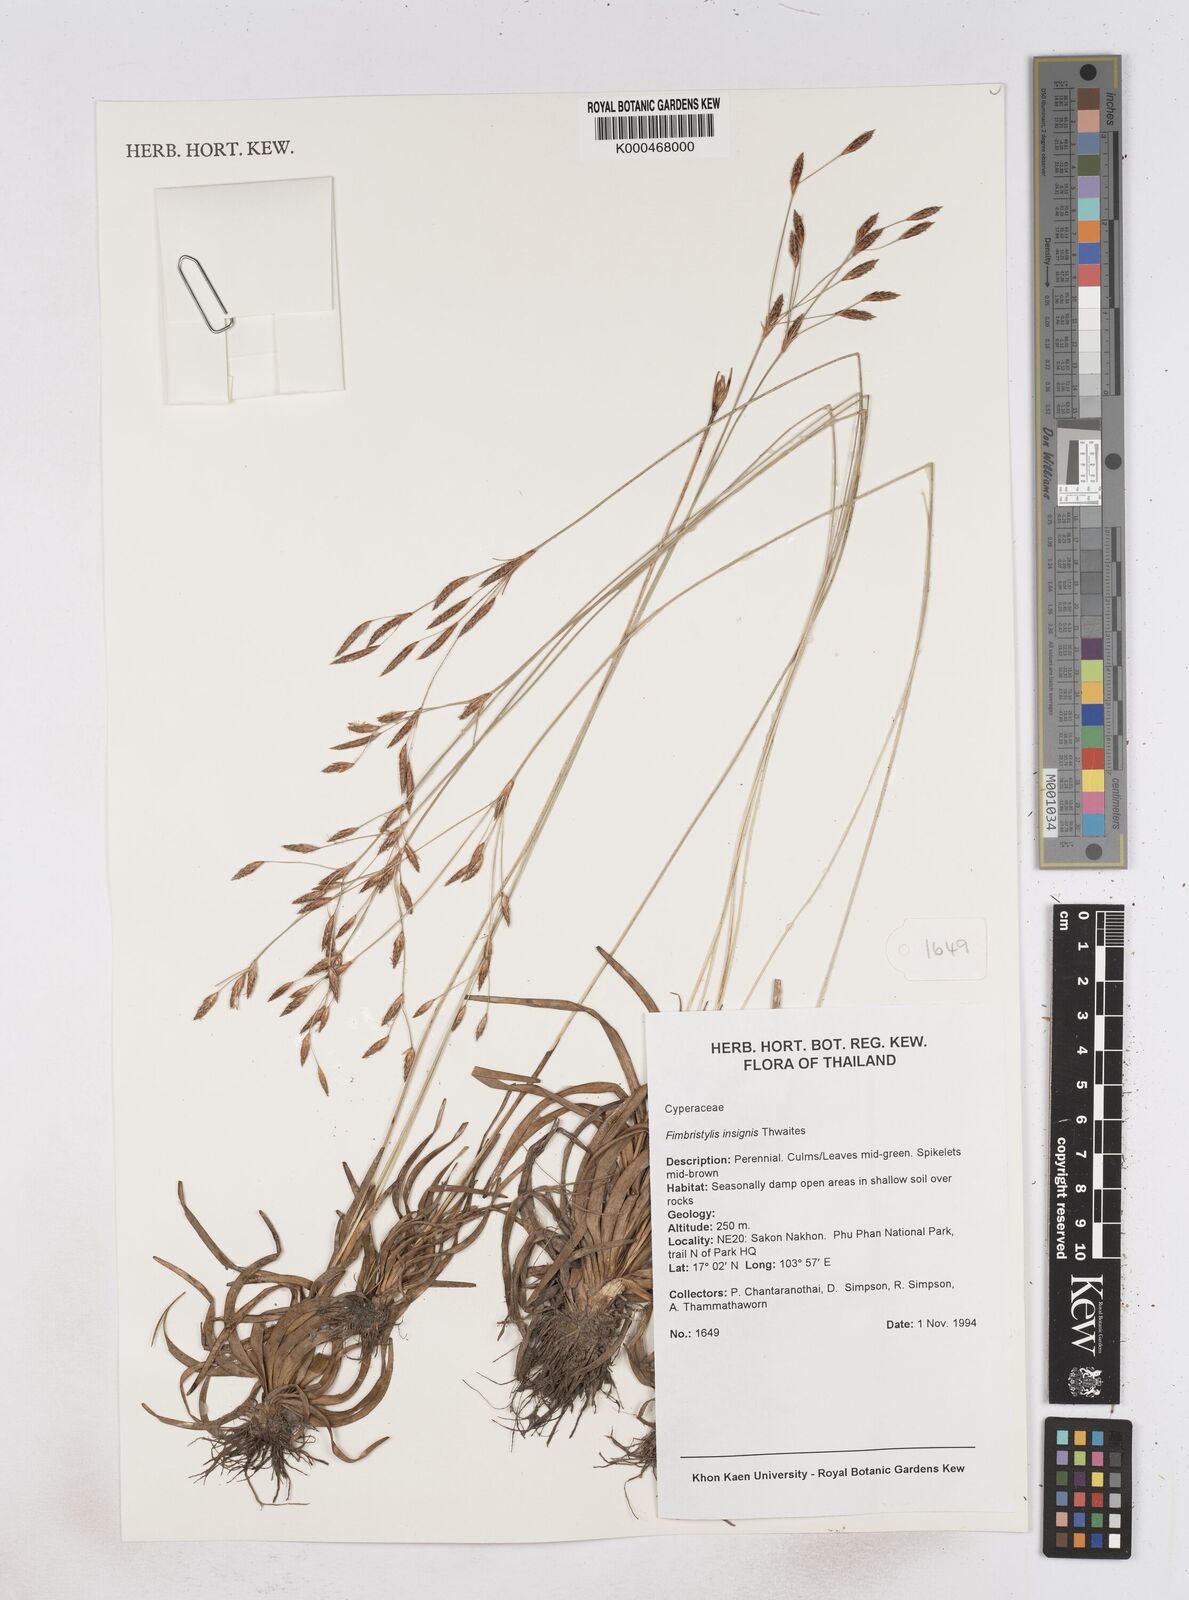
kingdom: Plantae
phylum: Tracheophyta
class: Liliopsida
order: Poales
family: Cyperaceae
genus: Fimbristylis
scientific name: Fimbristylis insignis
